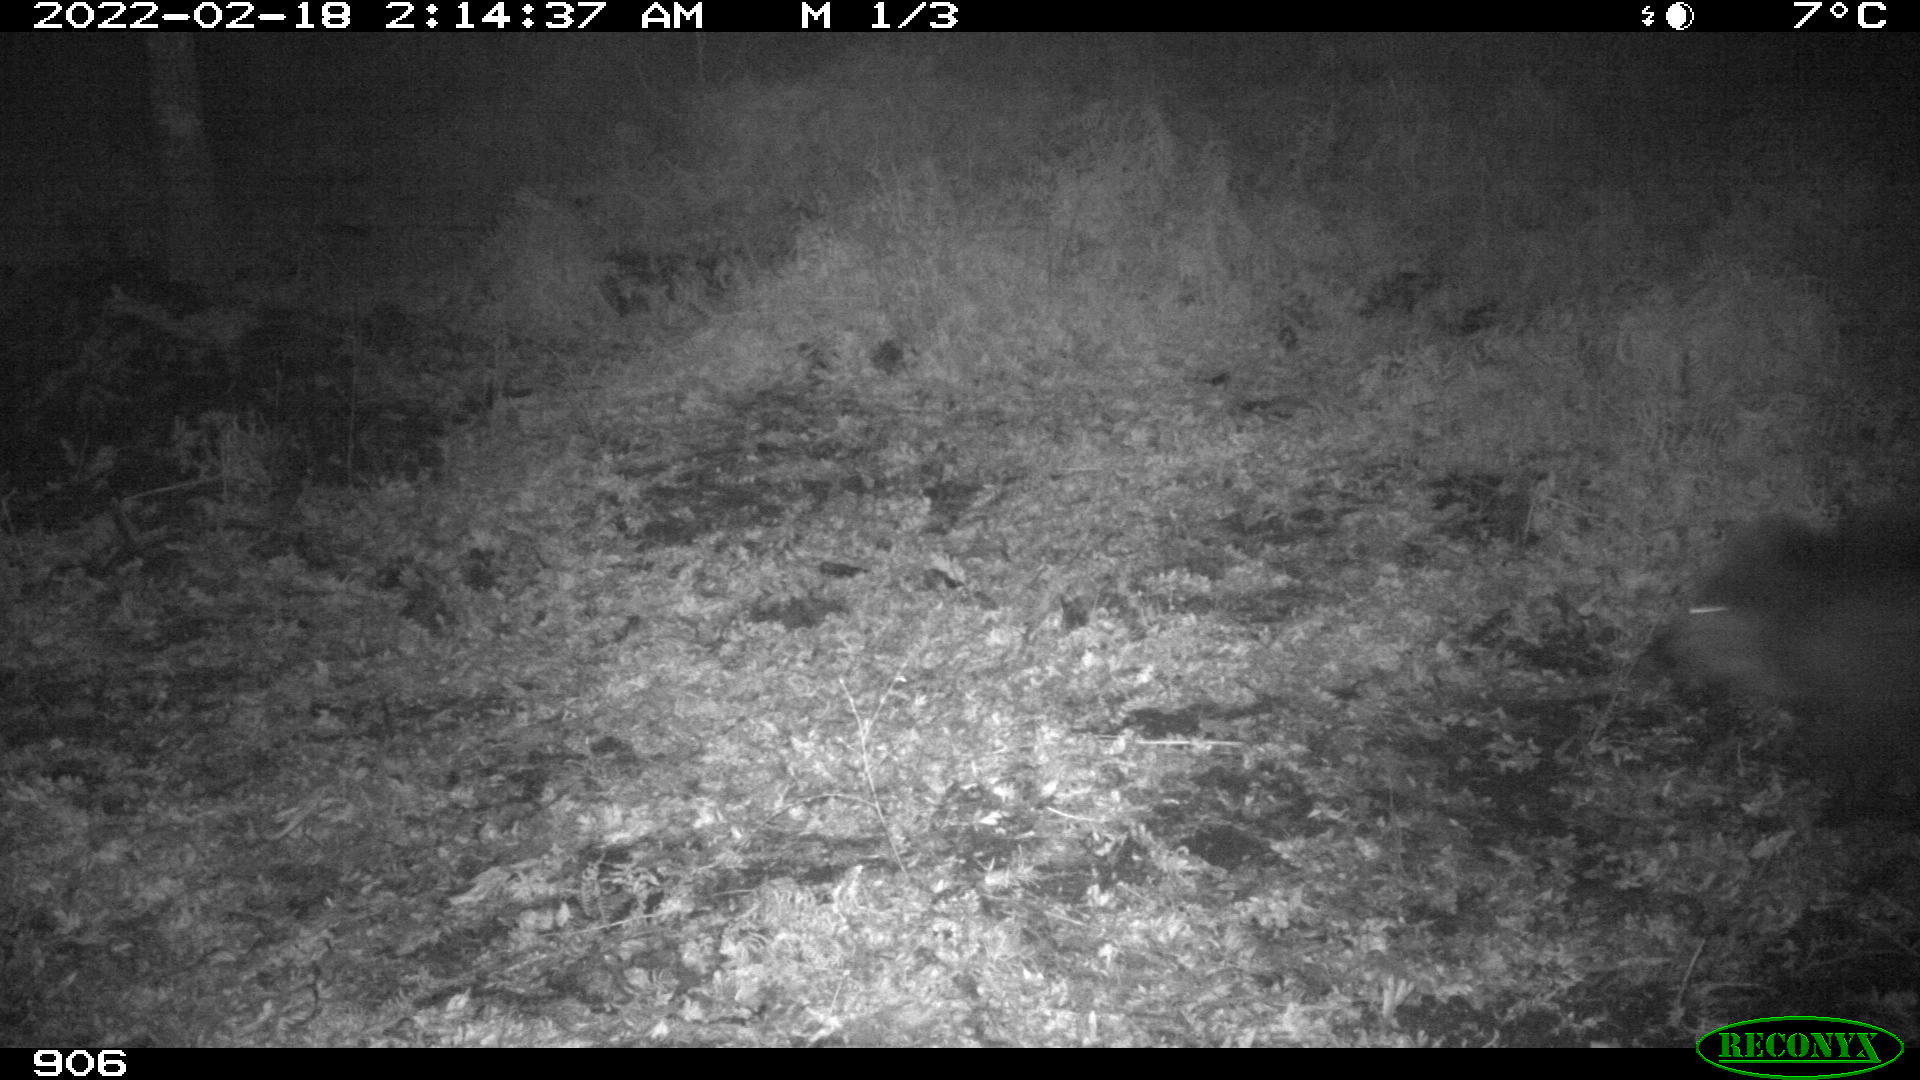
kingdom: Animalia
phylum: Chordata
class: Mammalia
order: Artiodactyla
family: Suidae
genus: Sus
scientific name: Sus scrofa
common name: Wild boar
